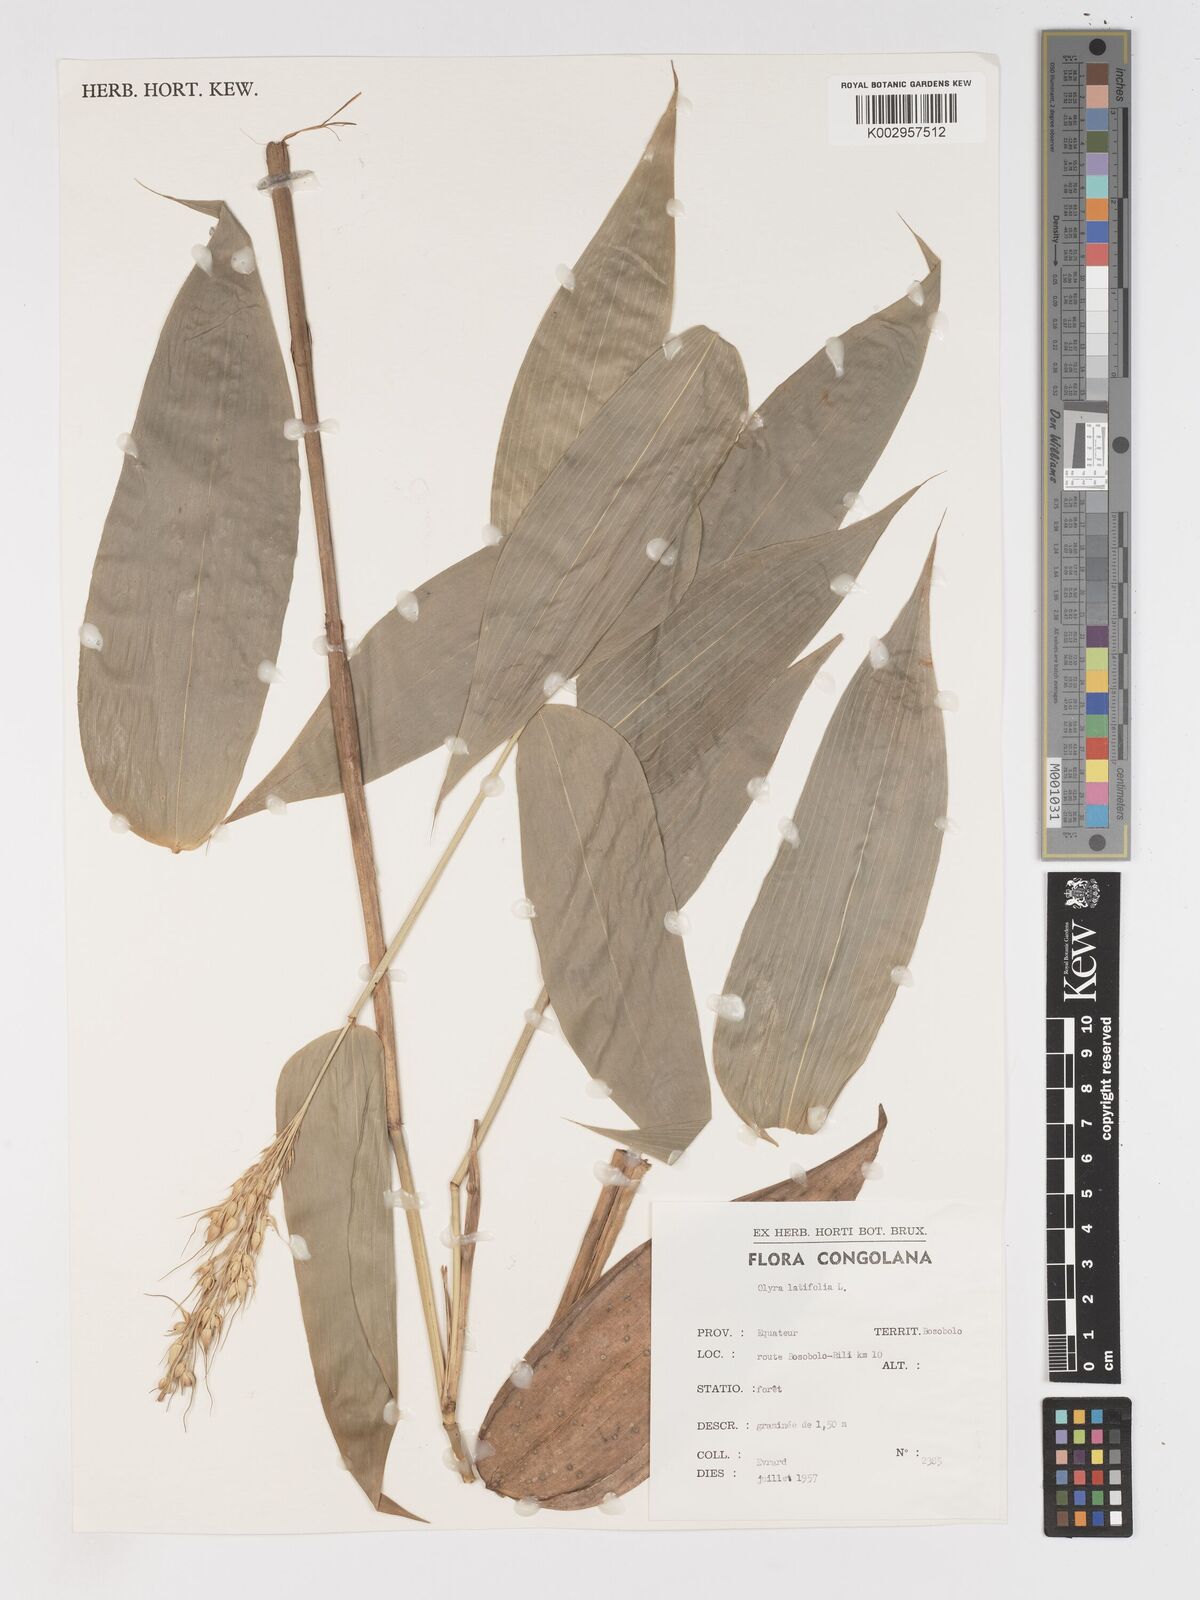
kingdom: Plantae
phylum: Tracheophyta
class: Liliopsida
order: Poales
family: Poaceae
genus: Olyra
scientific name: Olyra latifolia
